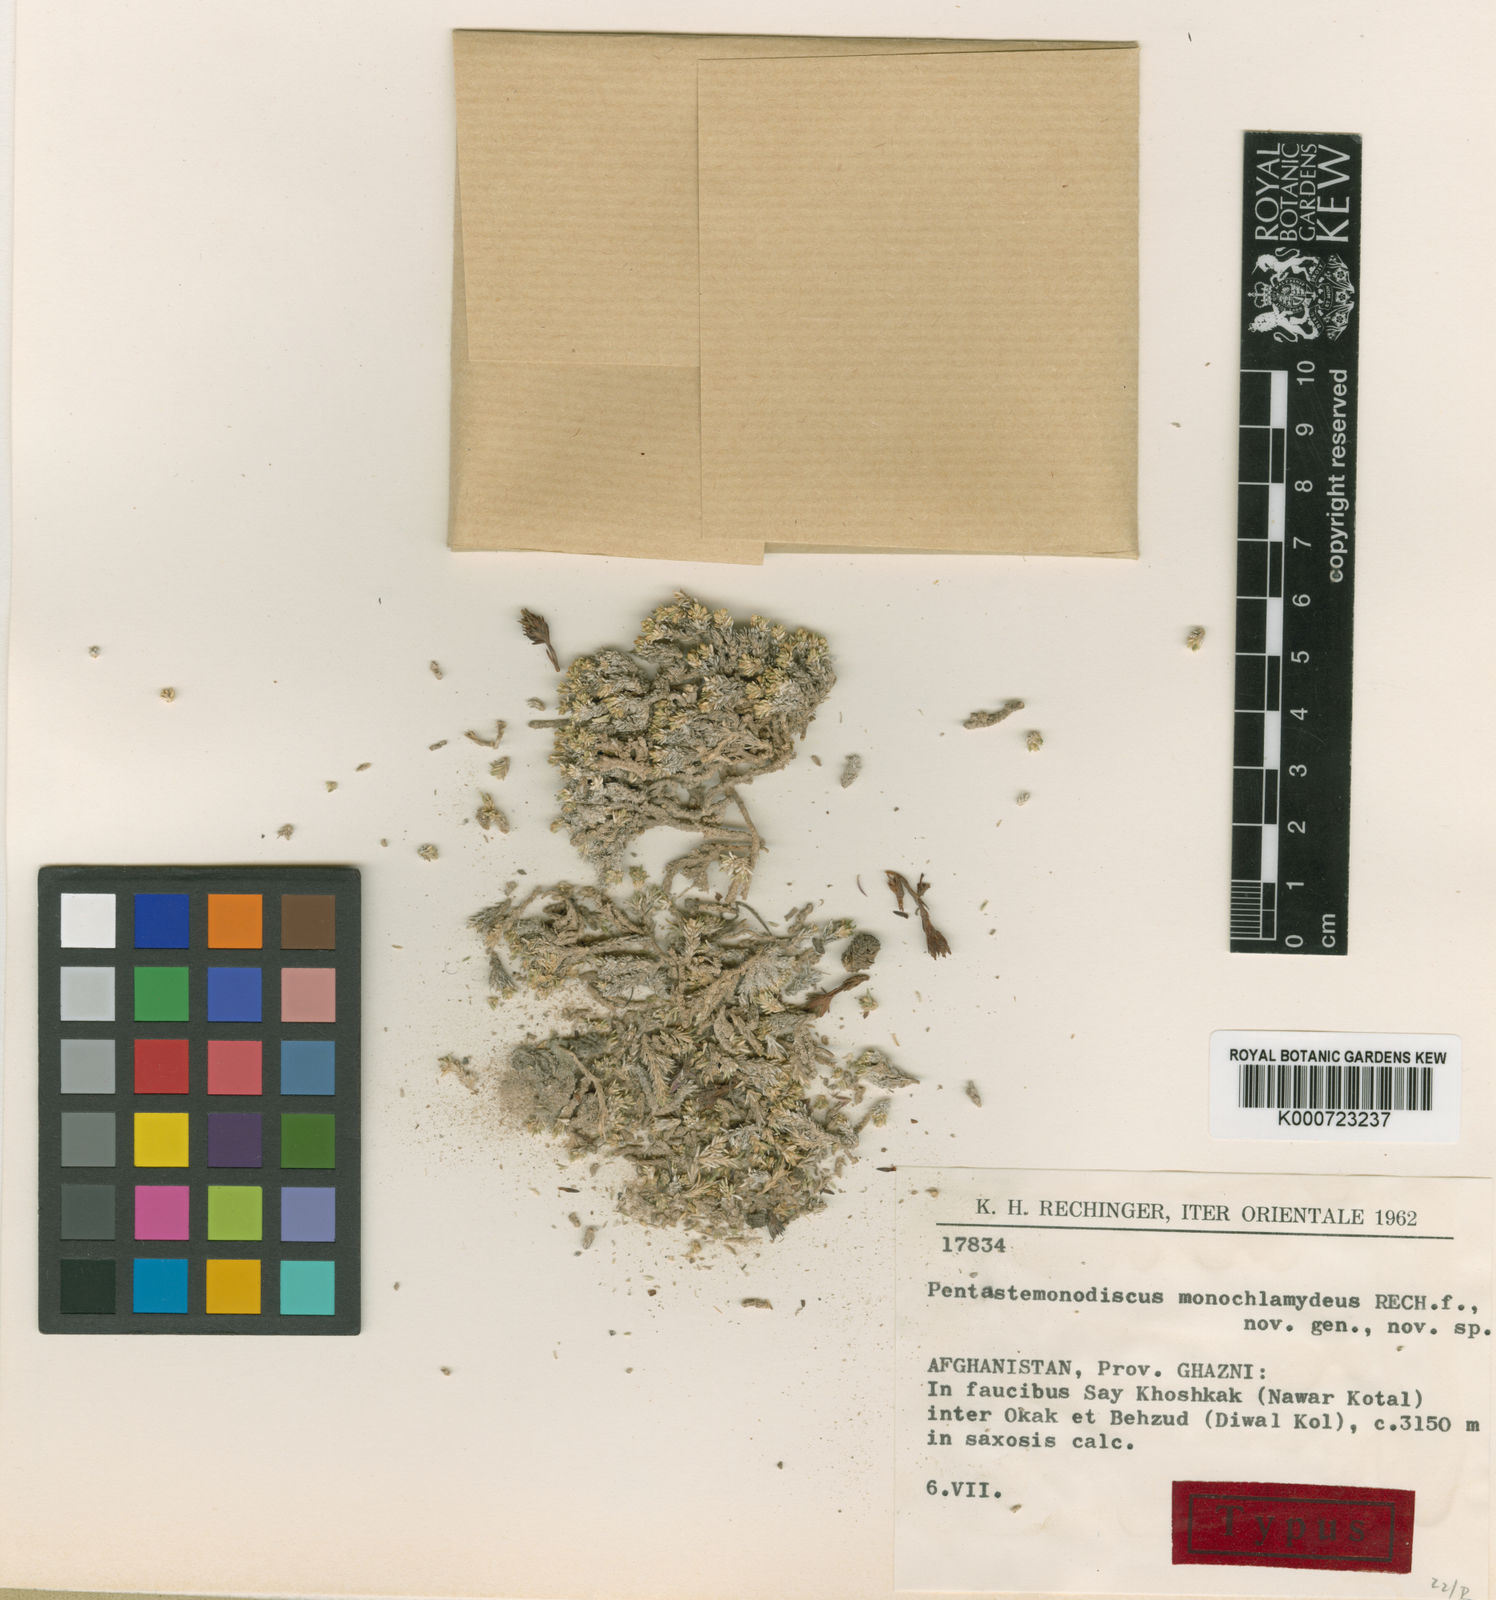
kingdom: Plantae
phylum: Tracheophyta
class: Magnoliopsida
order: Caryophyllales
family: Caryophyllaceae
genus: Pentastemonodiscus
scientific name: Pentastemonodiscus monochlamydeus
